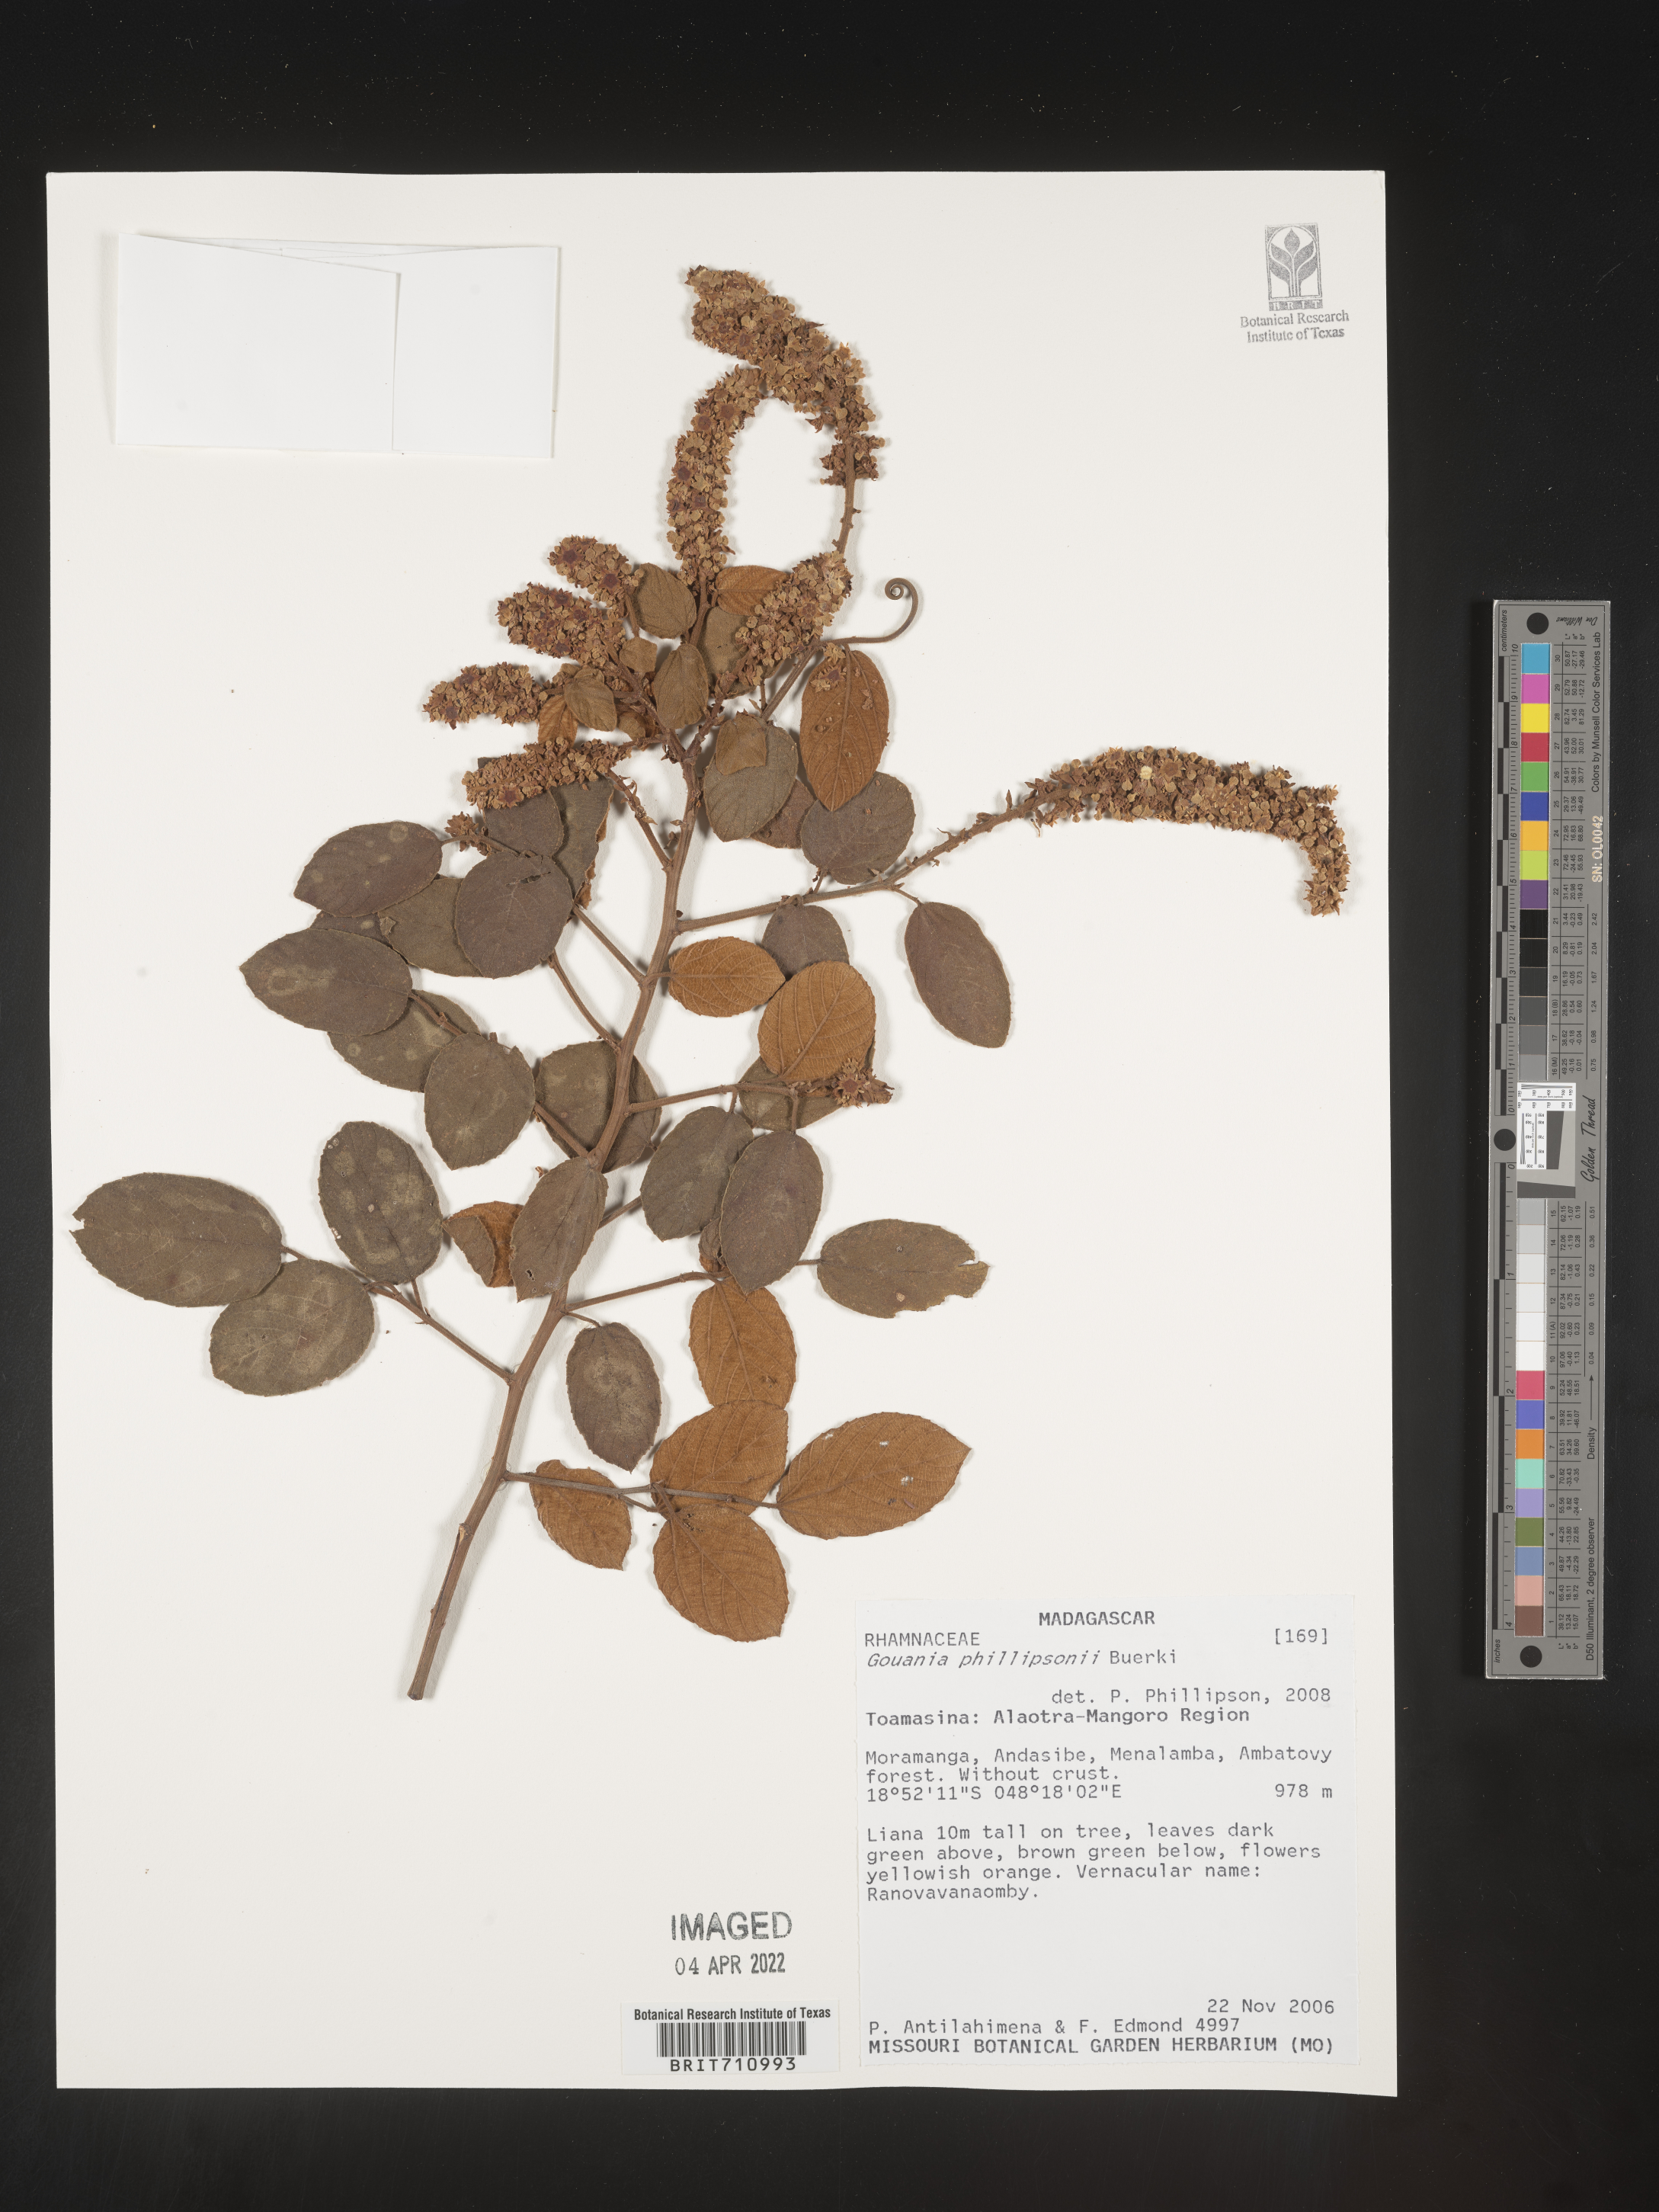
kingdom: Plantae
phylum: Tracheophyta
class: Magnoliopsida
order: Rosales
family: Rhamnaceae
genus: Gouania
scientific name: Gouania
